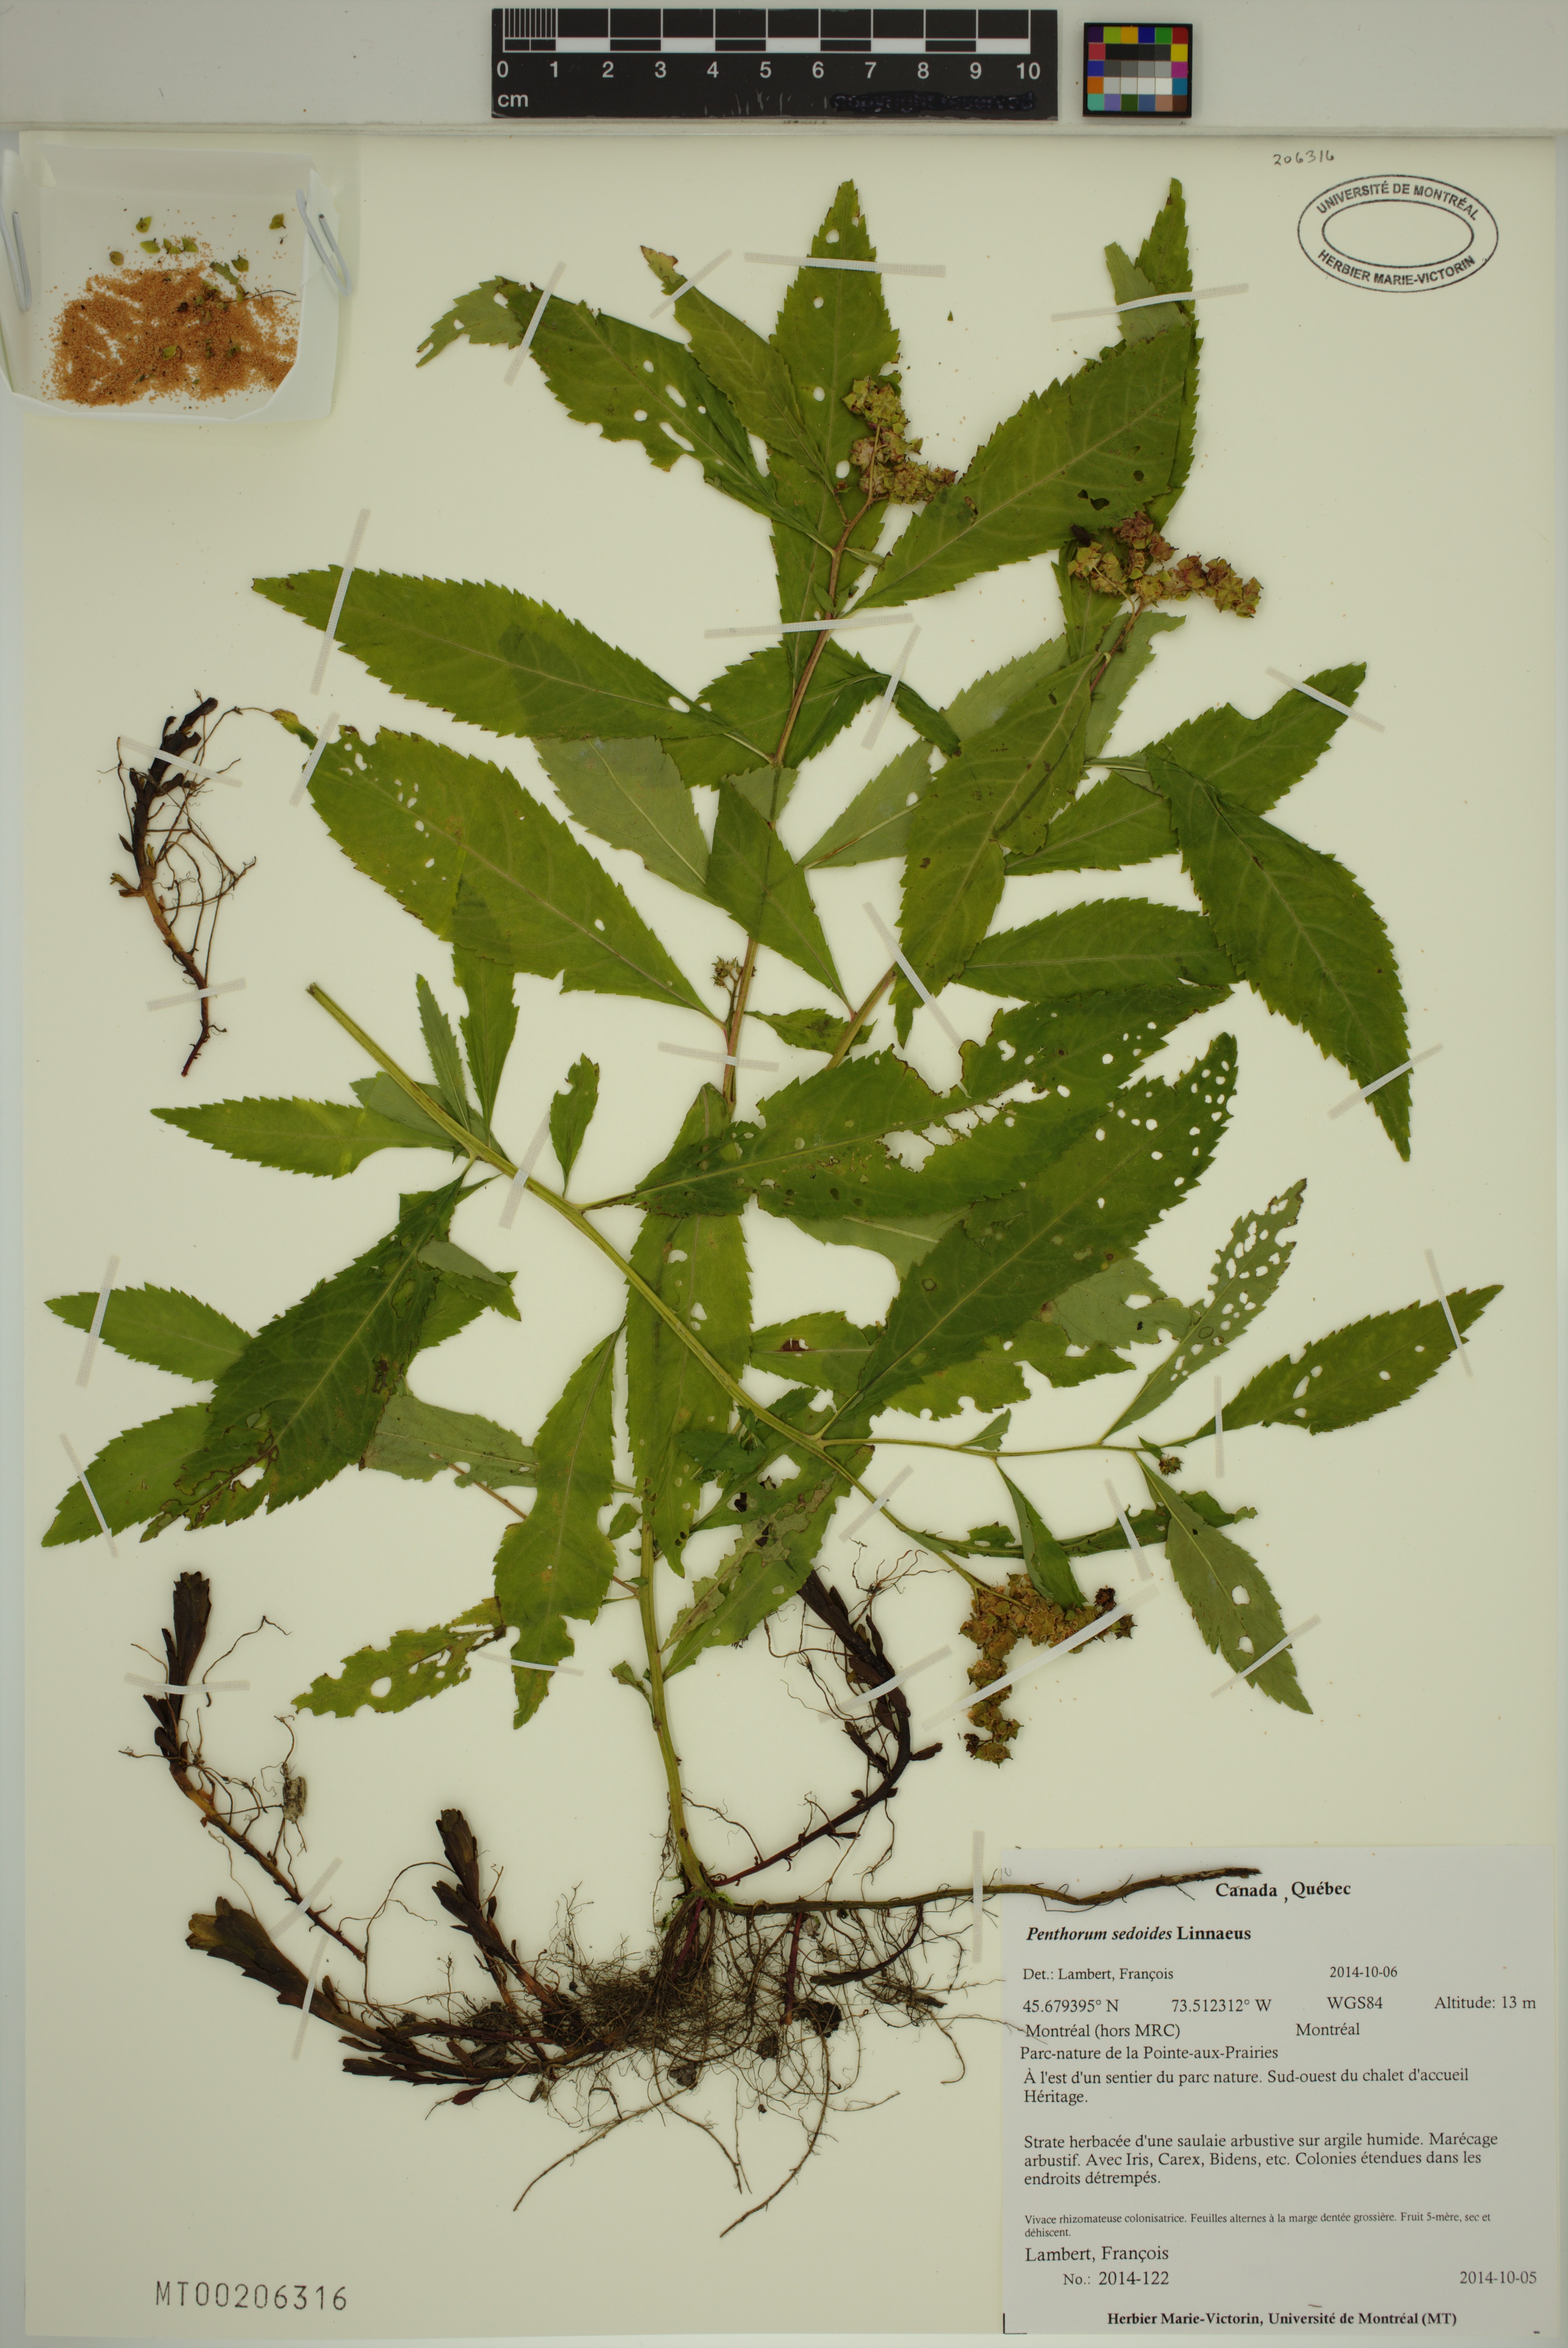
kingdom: Plantae
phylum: Tracheophyta
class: Magnoliopsida
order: Saxifragales
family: Penthoraceae
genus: Penthorum
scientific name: Penthorum sedoides
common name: Ditch stonecrop
